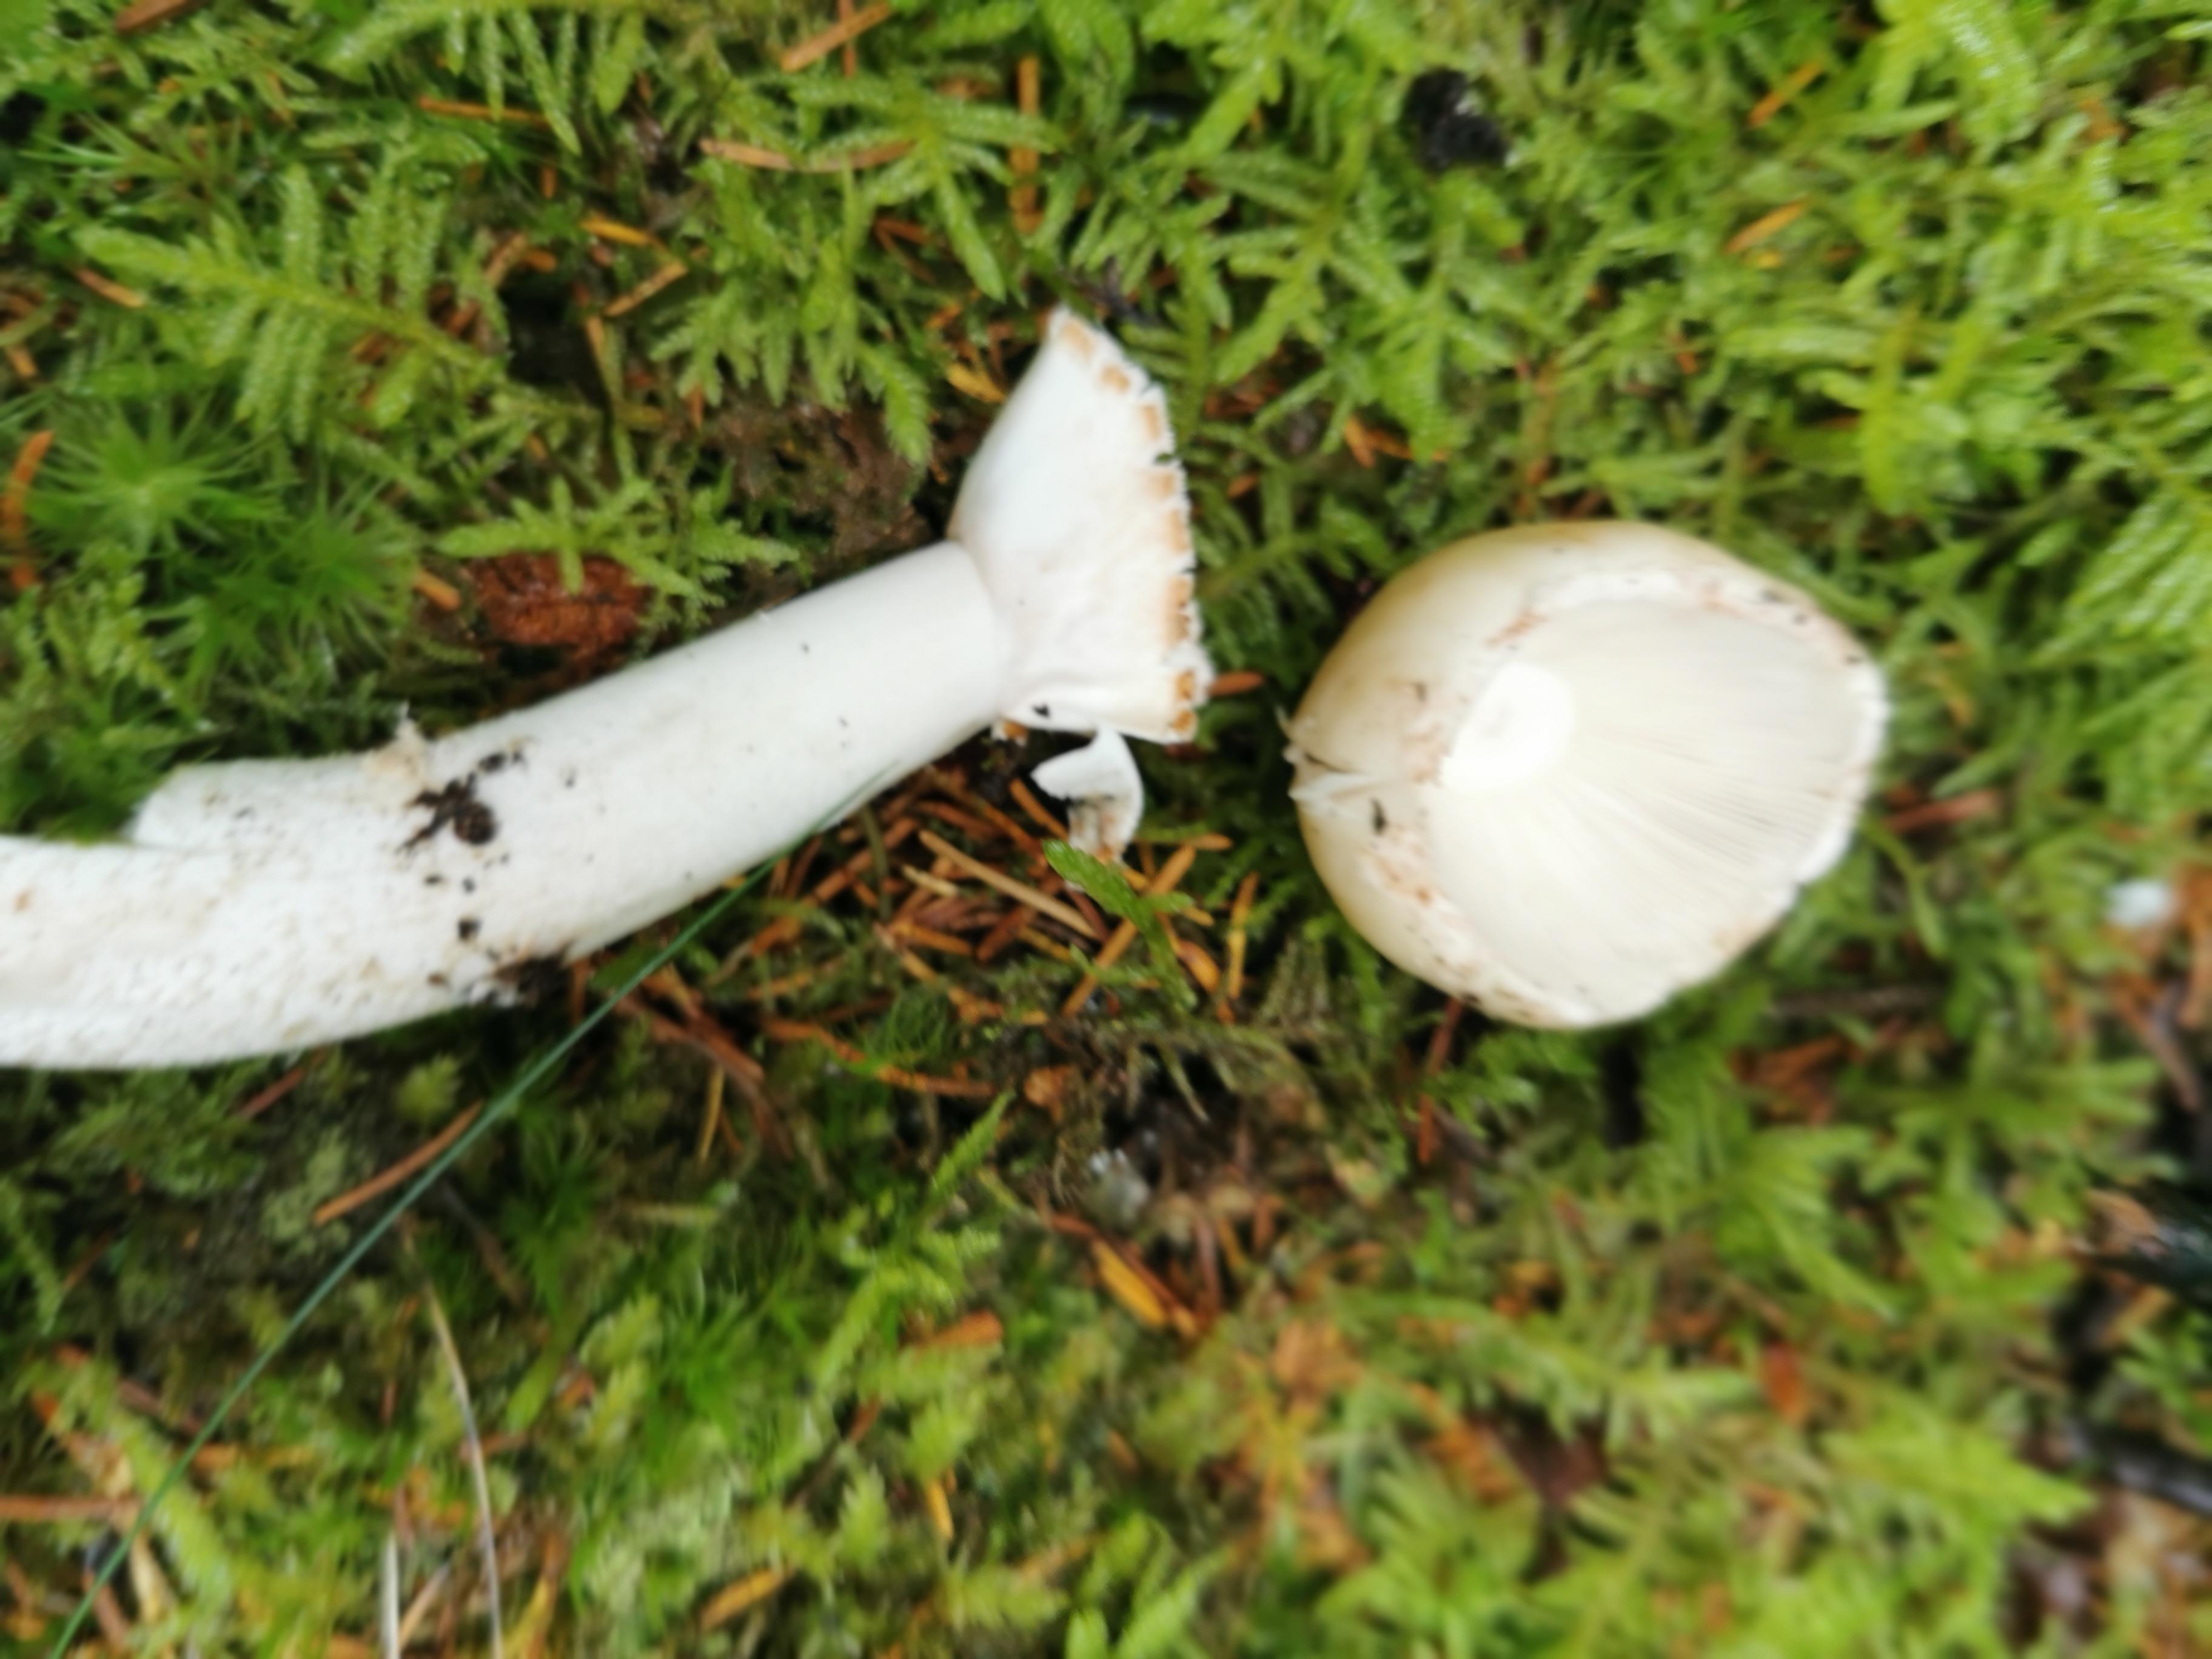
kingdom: Fungi
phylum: Basidiomycota
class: Agaricomycetes
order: Agaricales
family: Amanitaceae
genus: Amanita
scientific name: Amanita
